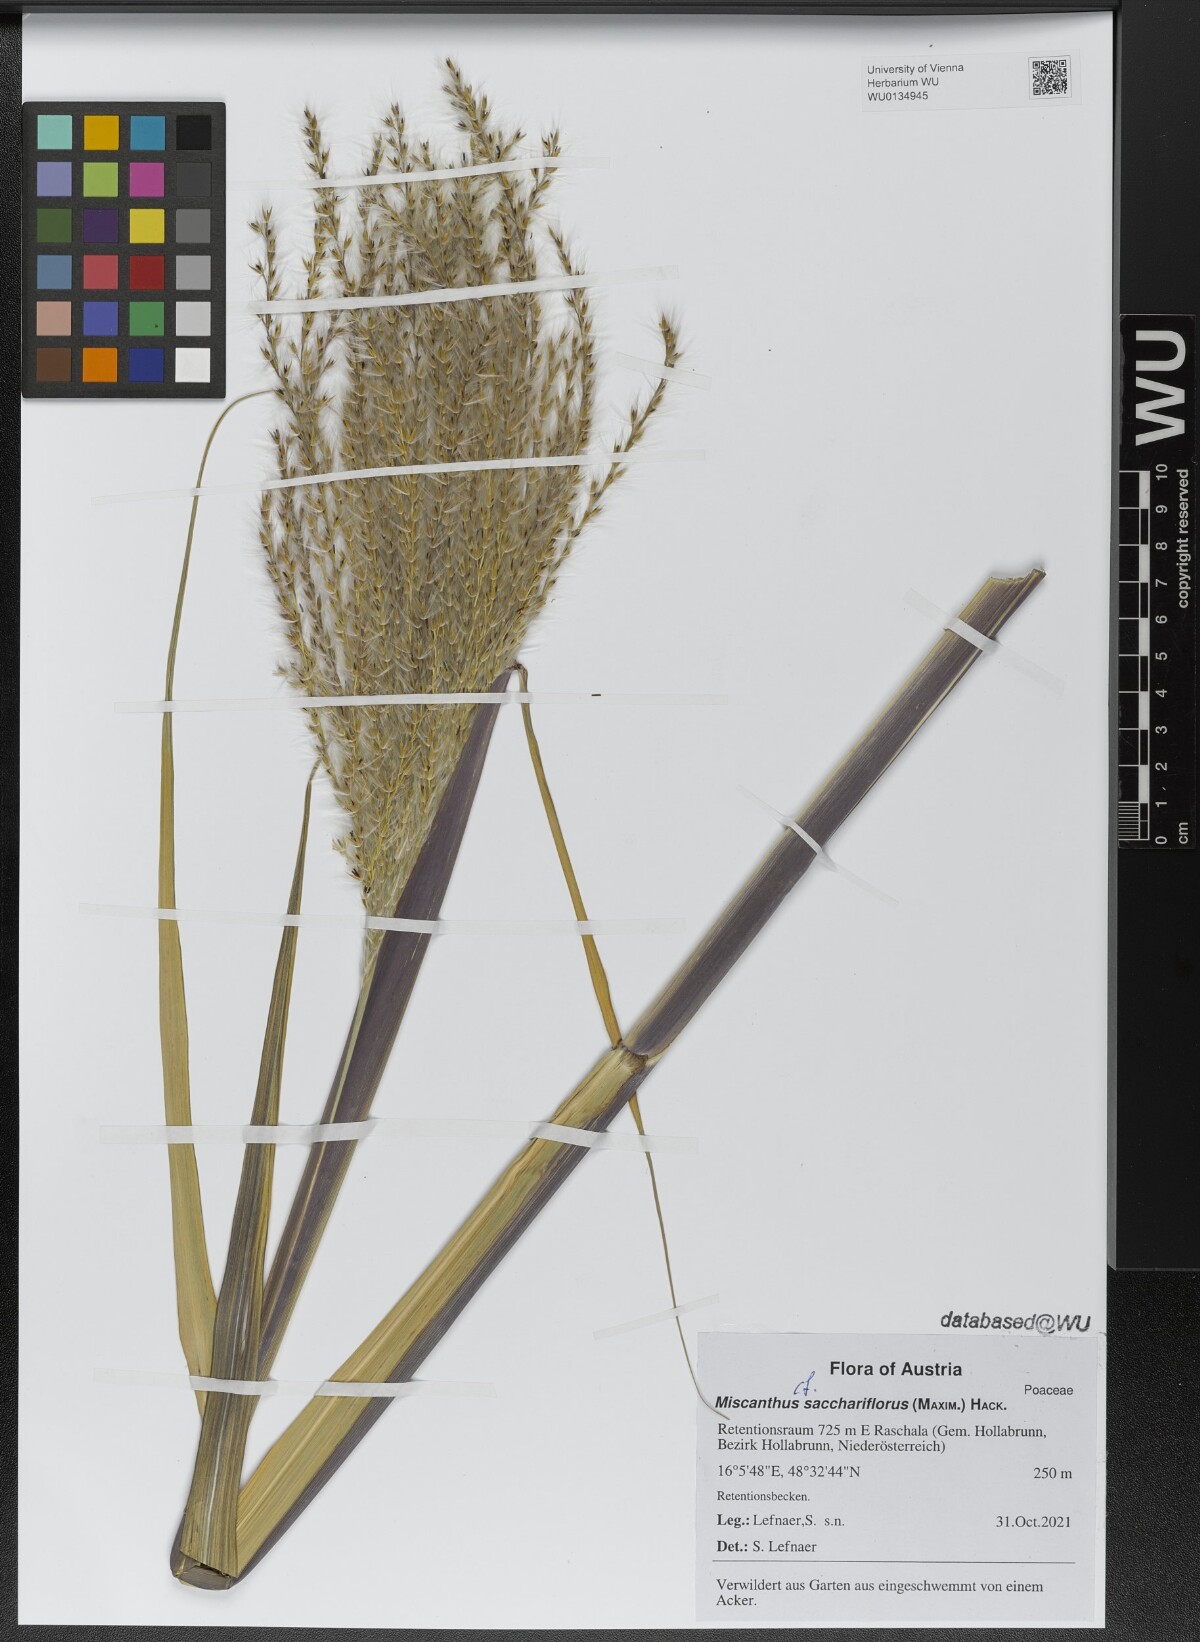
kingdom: Plantae
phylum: Tracheophyta
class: Liliopsida
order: Poales
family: Poaceae
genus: Miscanthus
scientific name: Miscanthus sacchariflorus
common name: Amur silver grass
